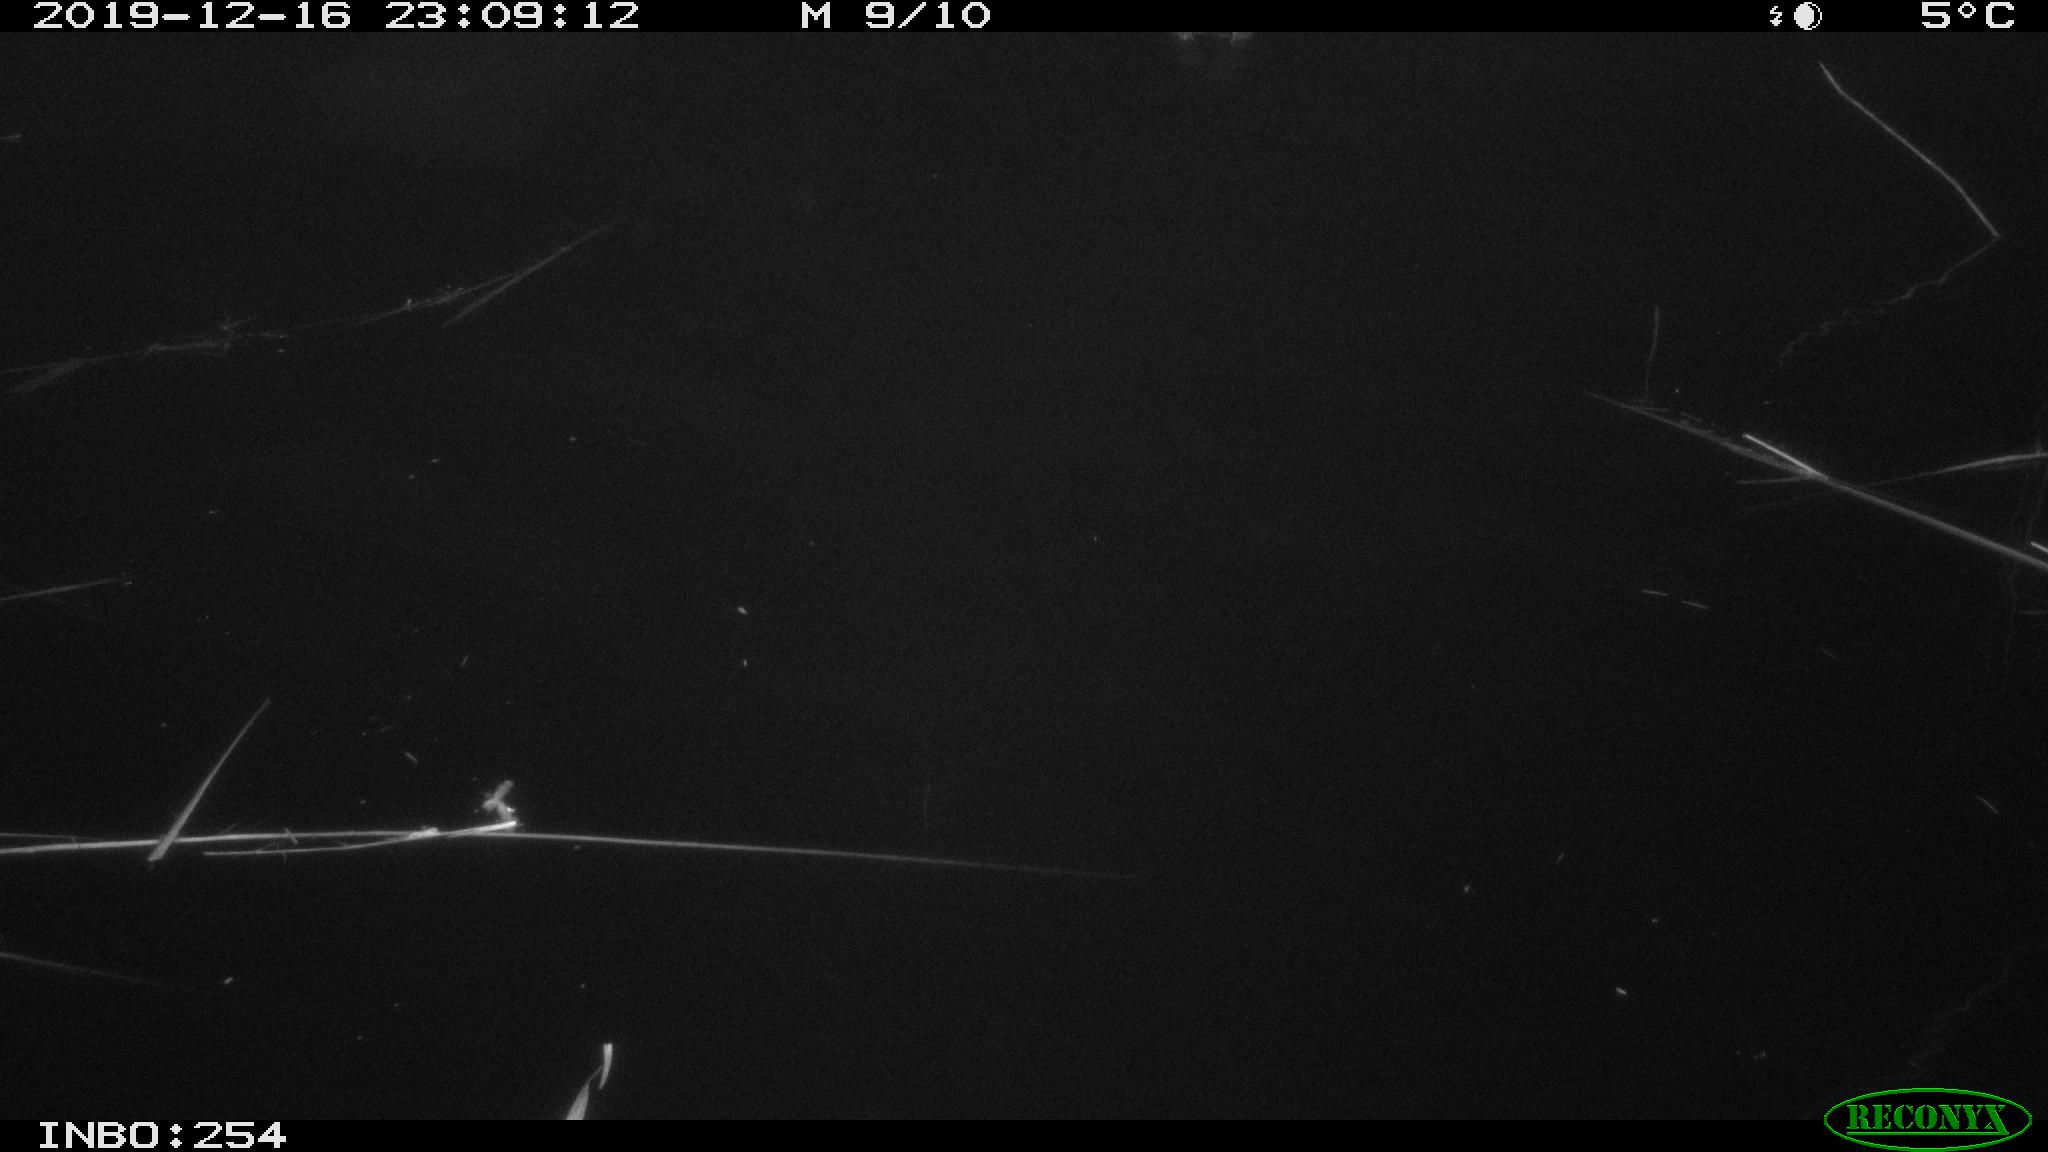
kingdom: Animalia
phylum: Chordata
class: Aves
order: Anseriformes
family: Anatidae
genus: Anas
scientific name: Anas platyrhynchos
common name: Mallard
